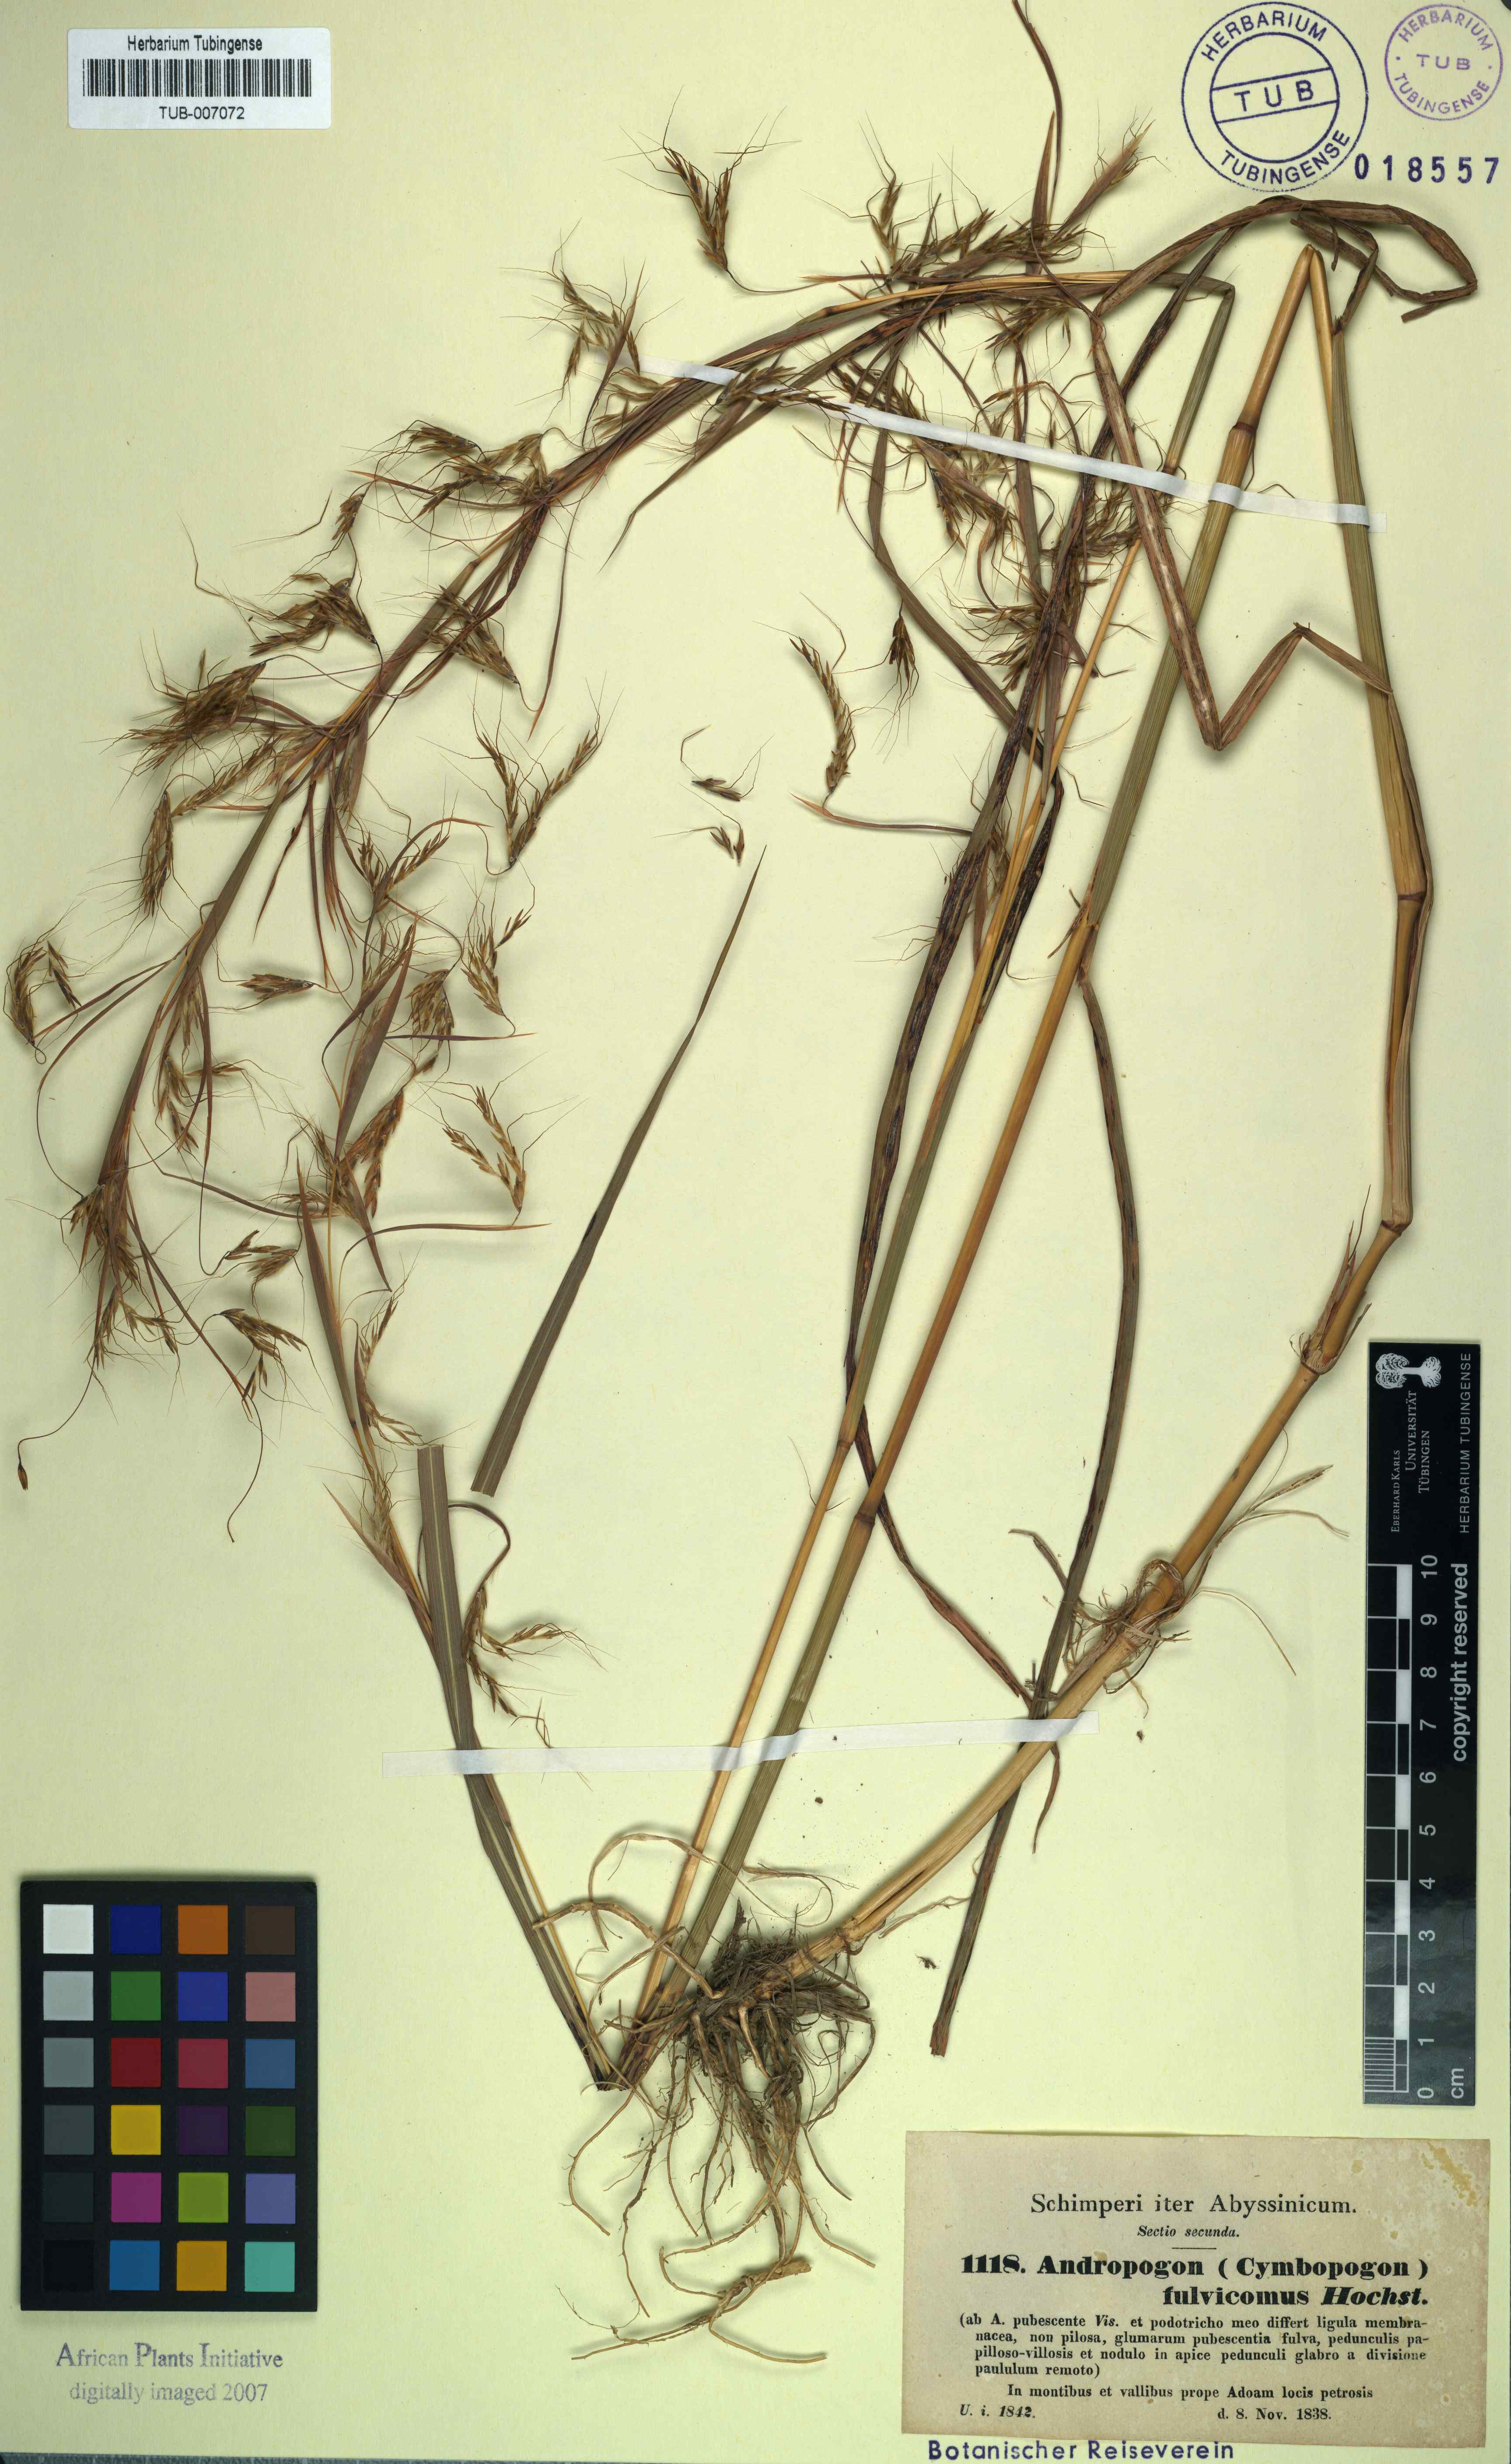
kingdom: Plantae
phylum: Tracheophyta
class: Liliopsida
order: Poales
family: Poaceae
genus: Hyparrhenia
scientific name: Hyparrhenia rufa
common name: Jaraguagrass
